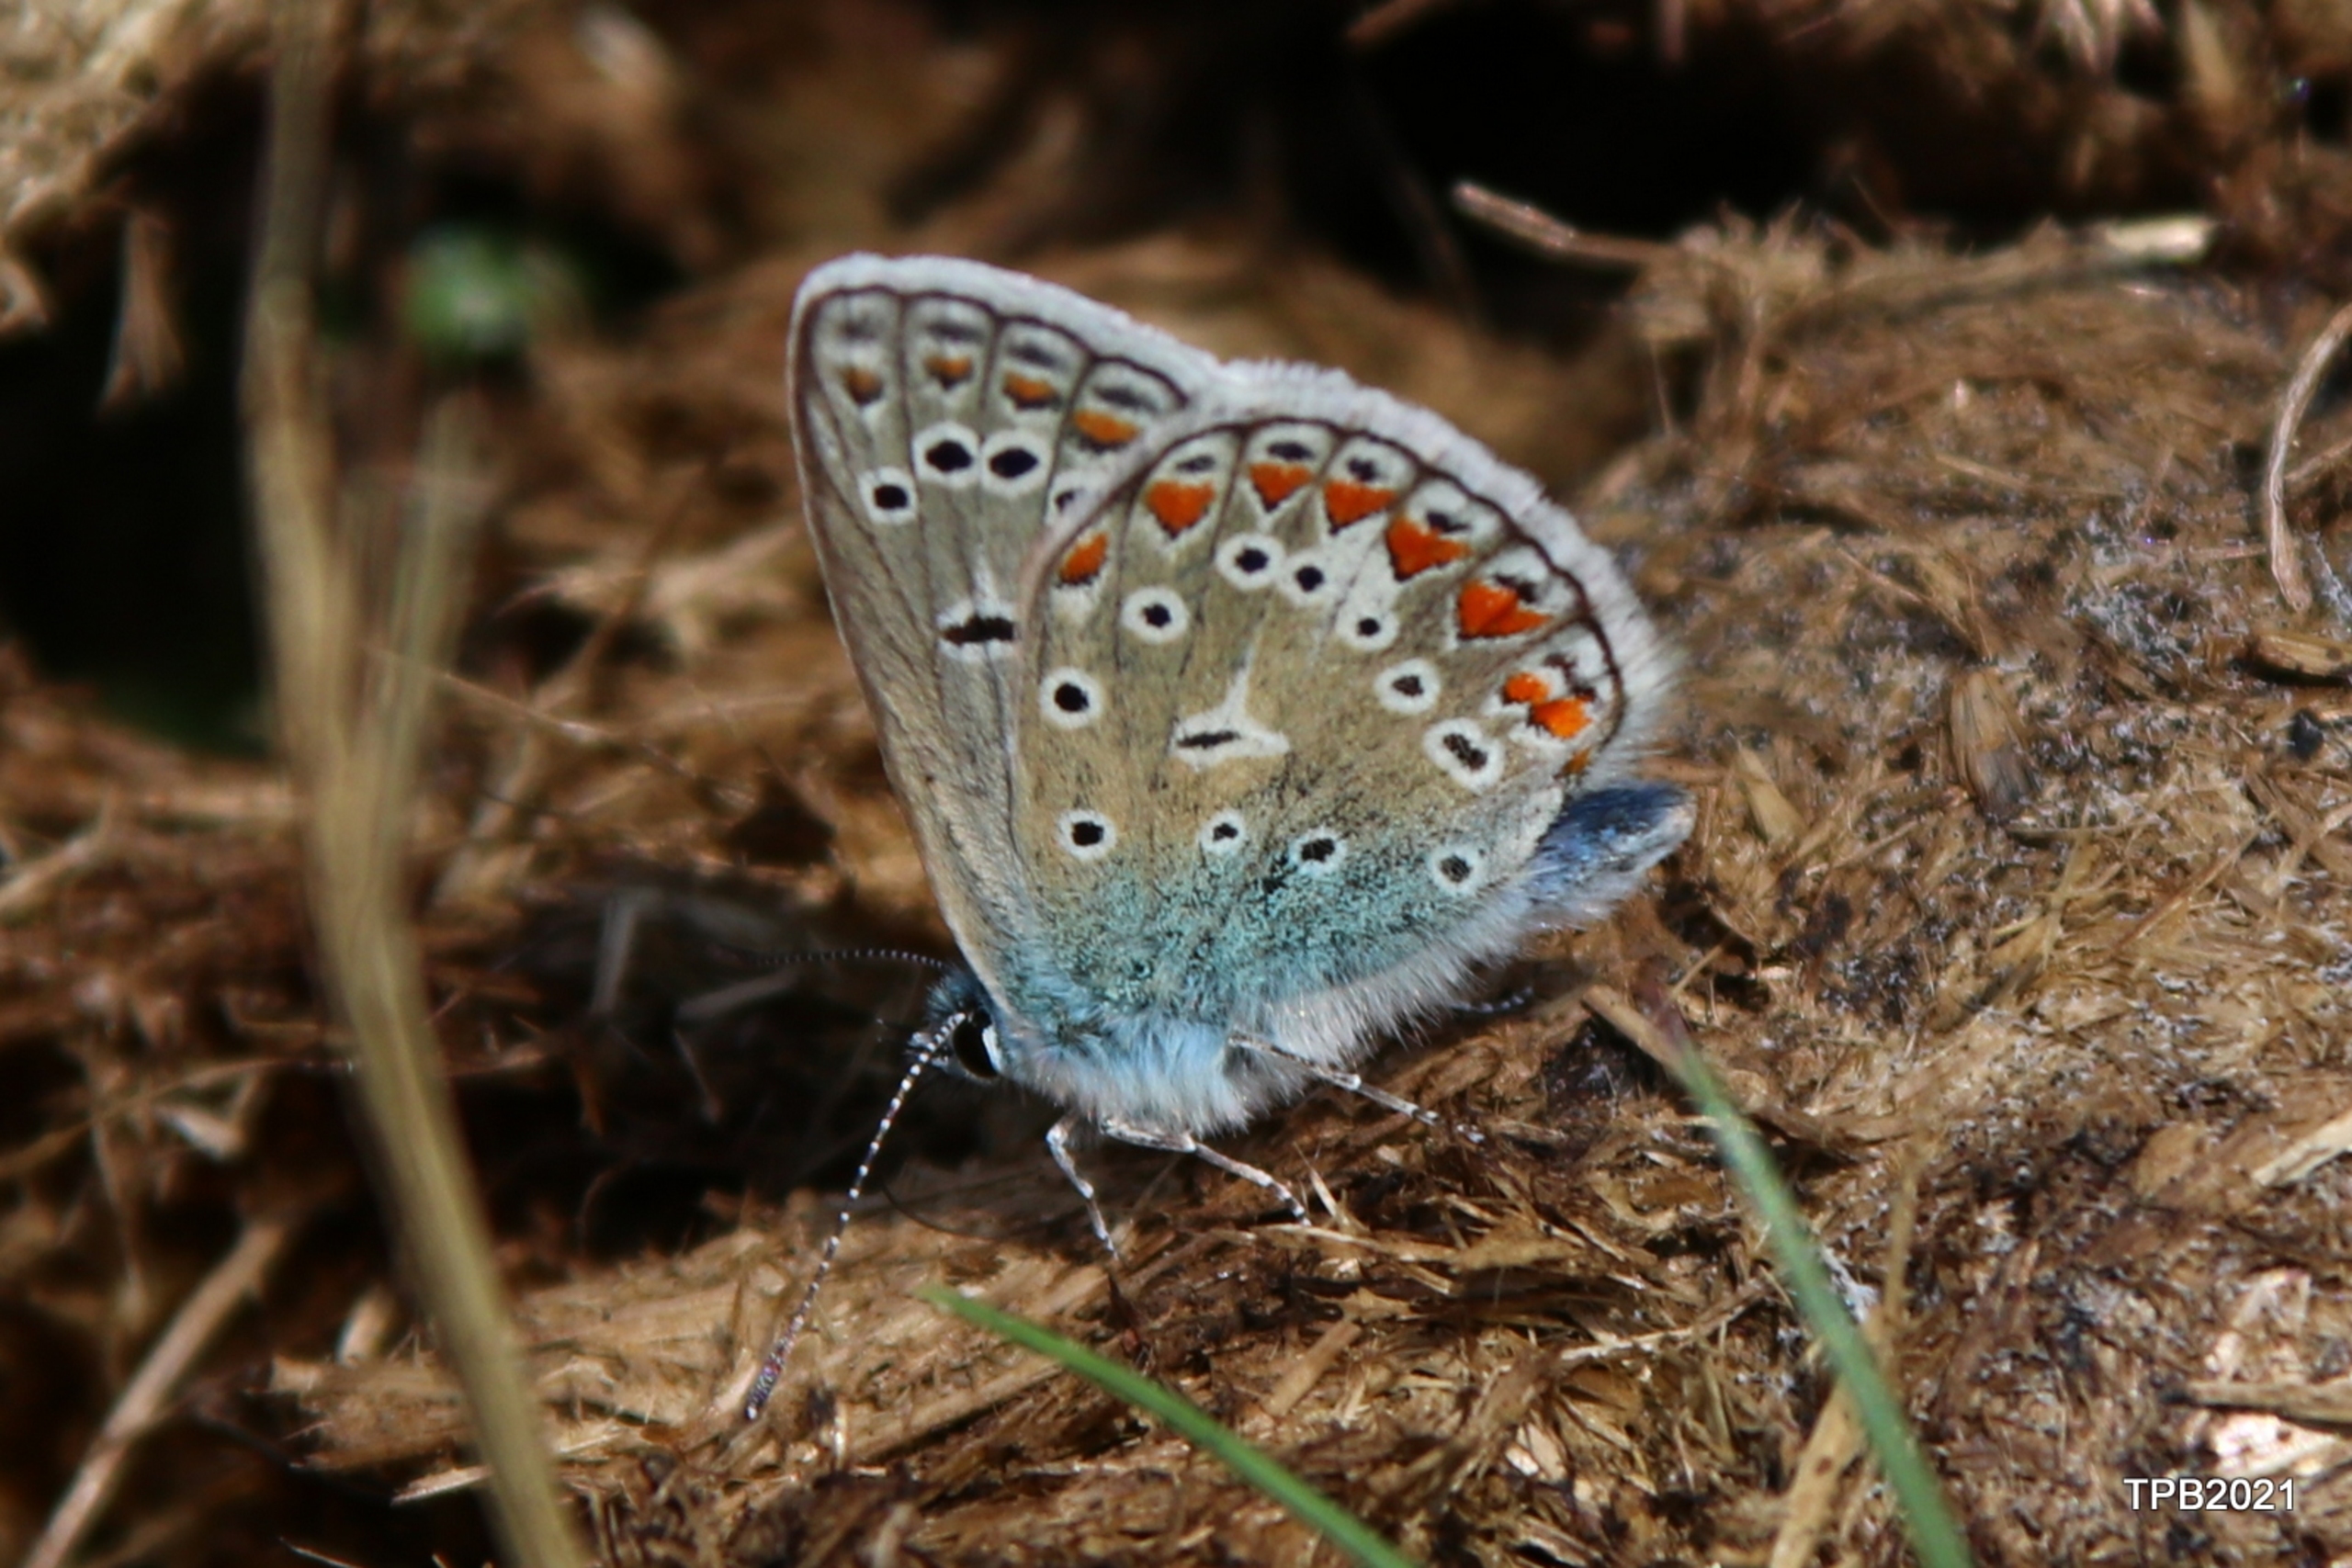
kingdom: Animalia
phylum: Arthropoda
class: Insecta
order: Lepidoptera
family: Lycaenidae
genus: Polyommatus
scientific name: Polyommatus icarus
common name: Almindelig blåfugl
